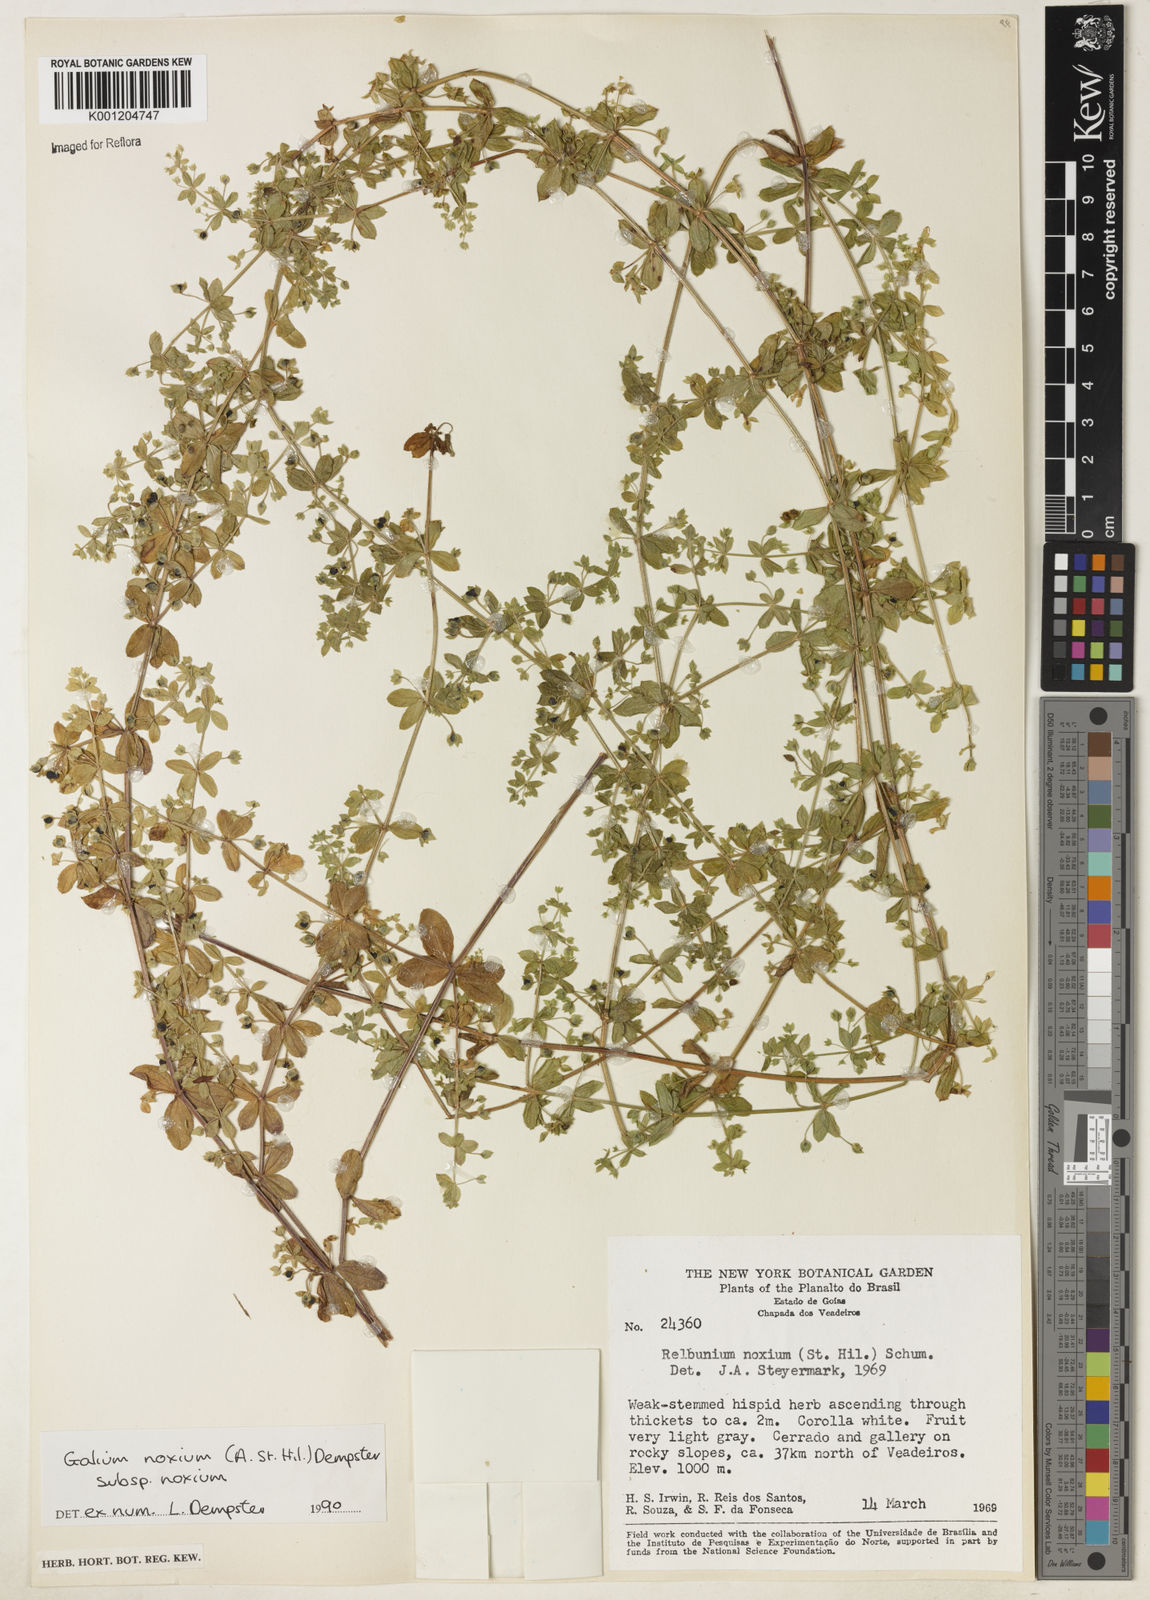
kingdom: Plantae
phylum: Tracheophyta
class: Magnoliopsida
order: Gentianales
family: Rubiaceae
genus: Galium
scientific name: Galium noxium
